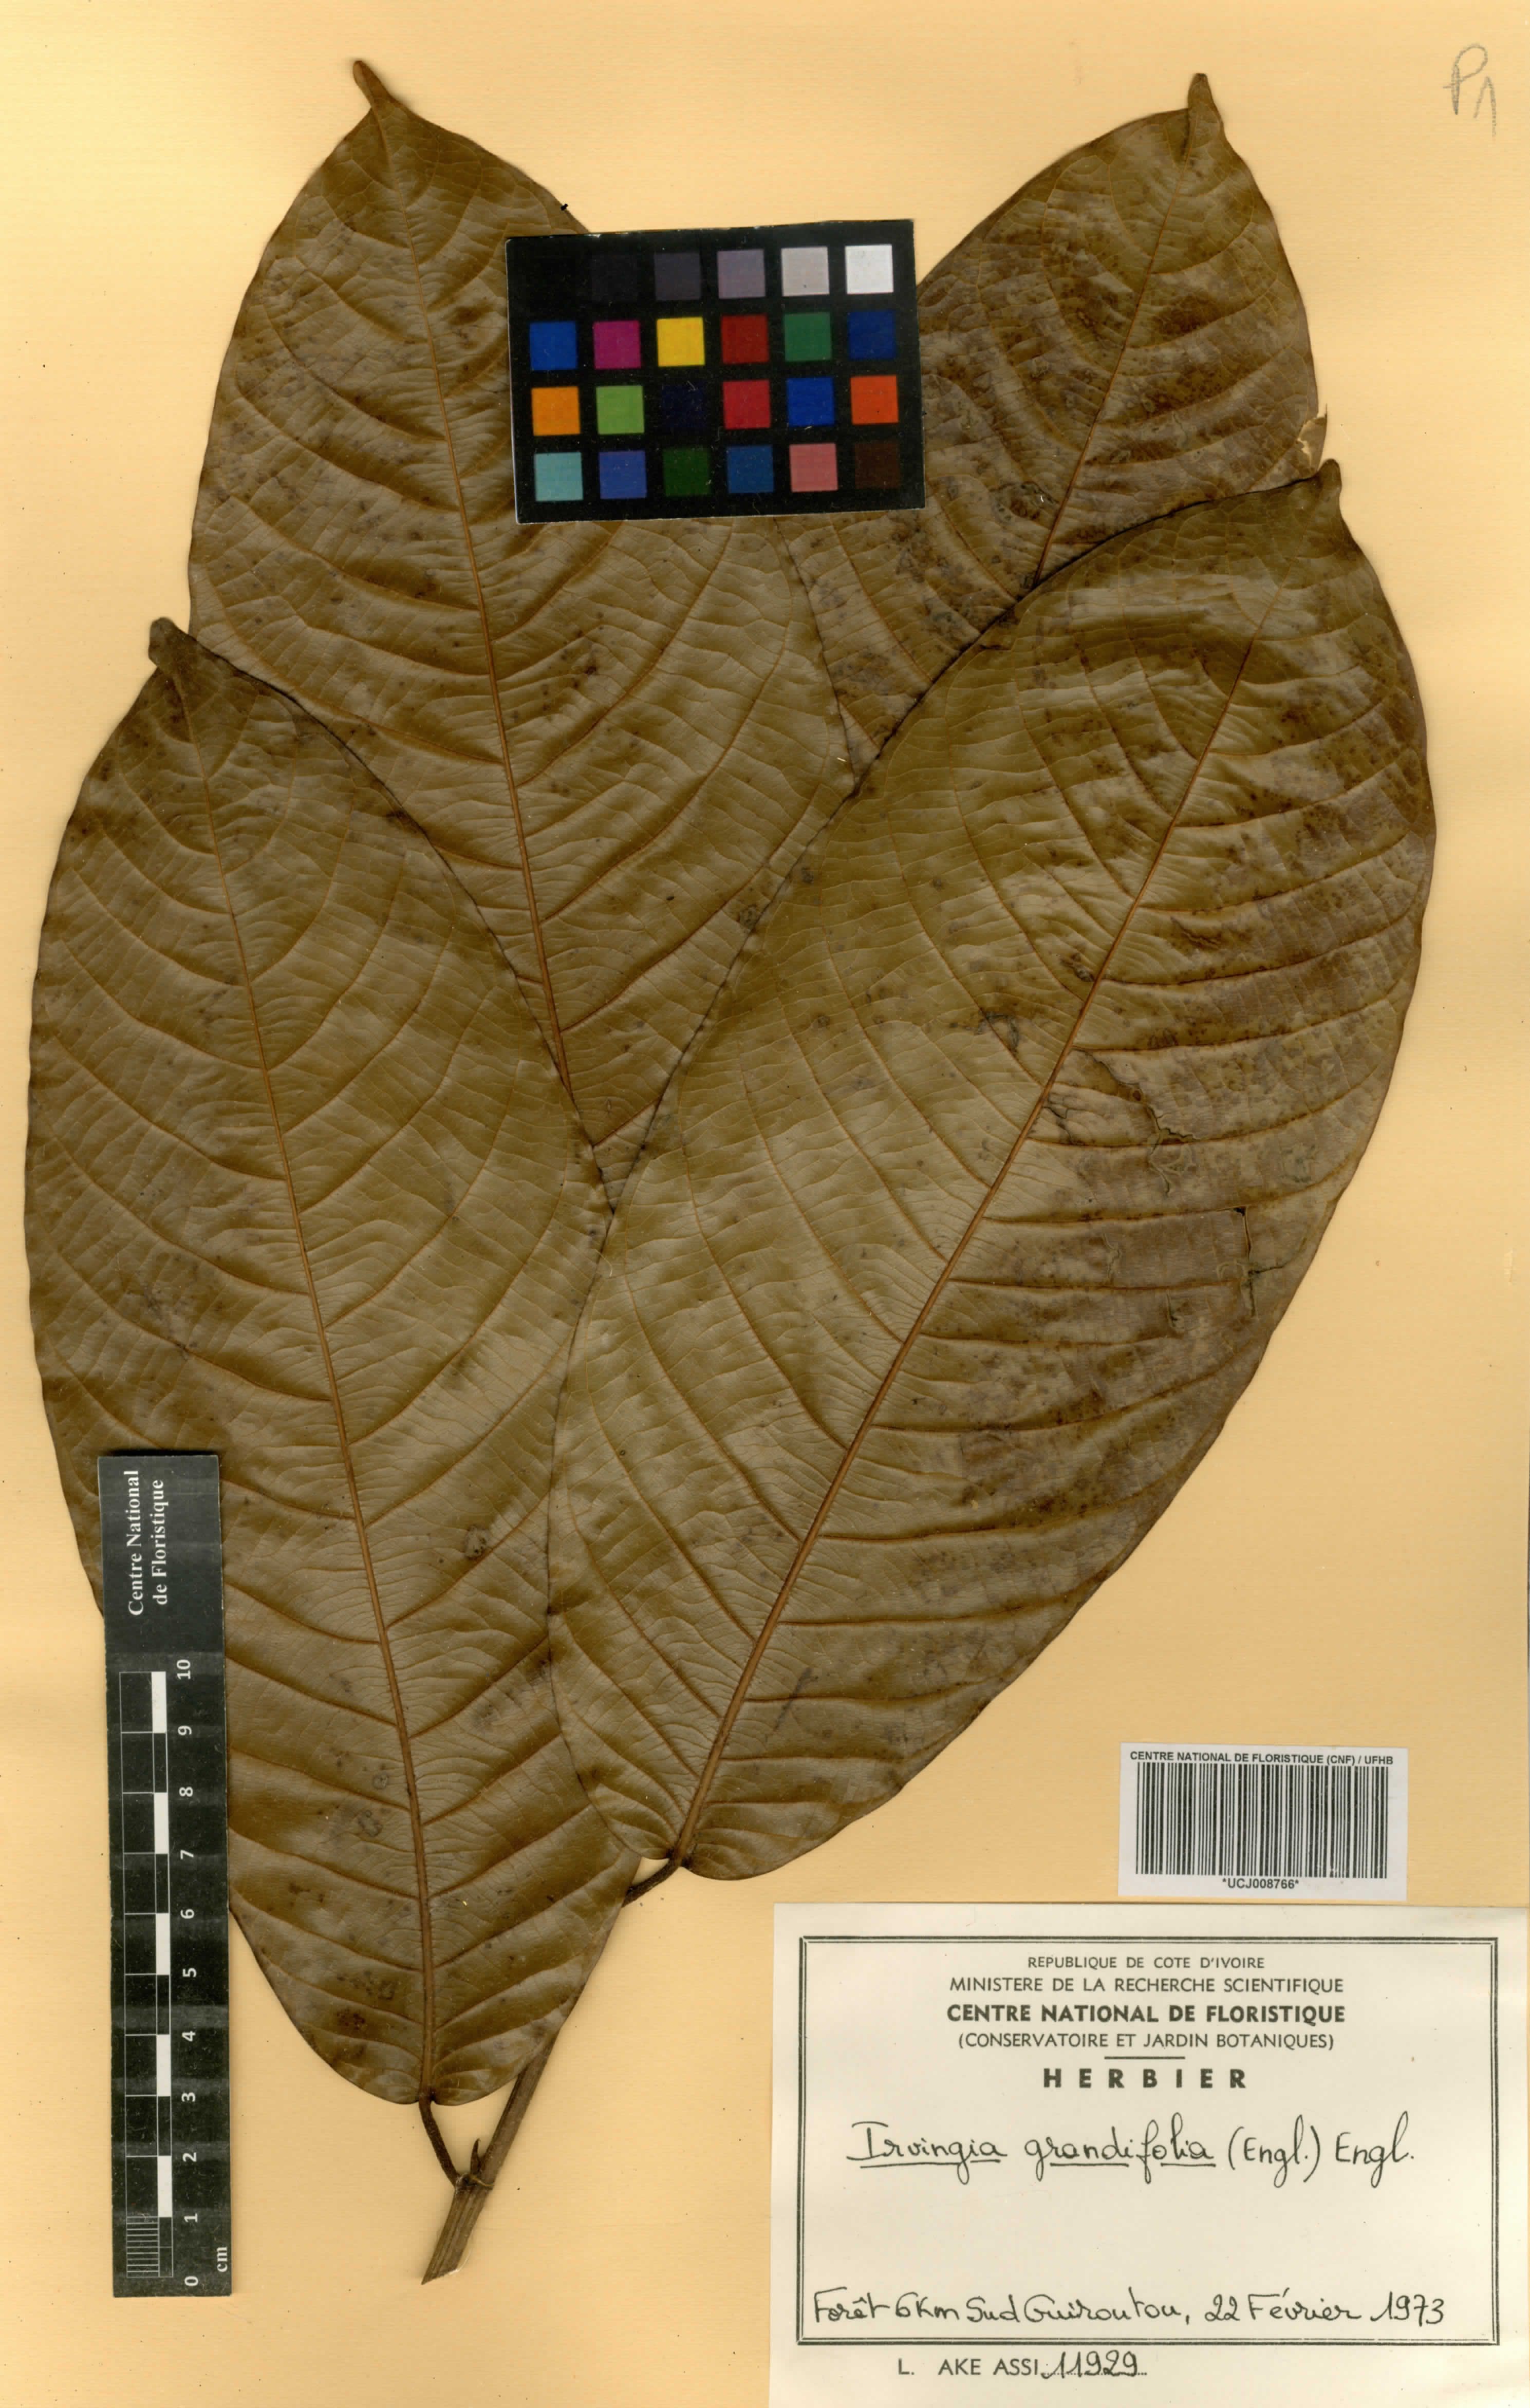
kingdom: Plantae
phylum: Tracheophyta
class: Magnoliopsida
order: Malpighiales
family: Irvingiaceae
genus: Irvingia
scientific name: Irvingia grandifolia
